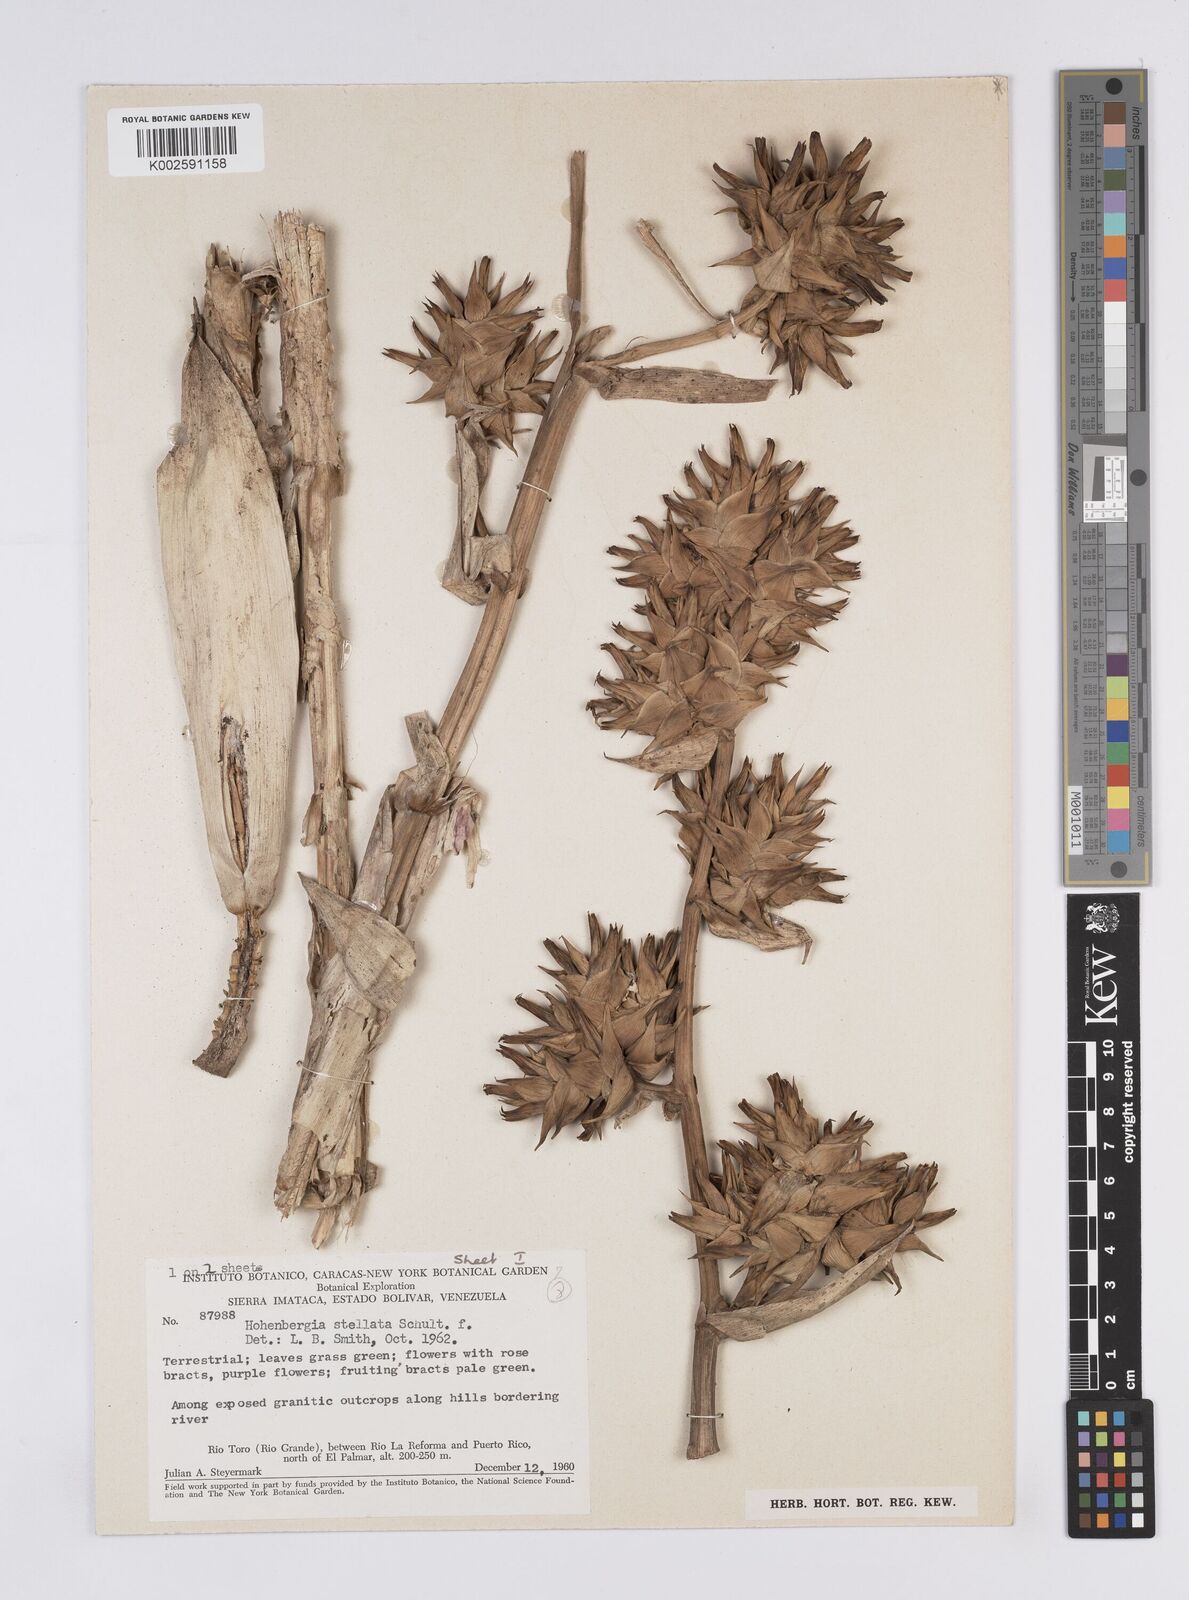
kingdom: Plantae
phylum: Tracheophyta
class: Liliopsida
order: Poales
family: Bromeliaceae
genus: Hohenbergia
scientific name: Hohenbergia stellata
